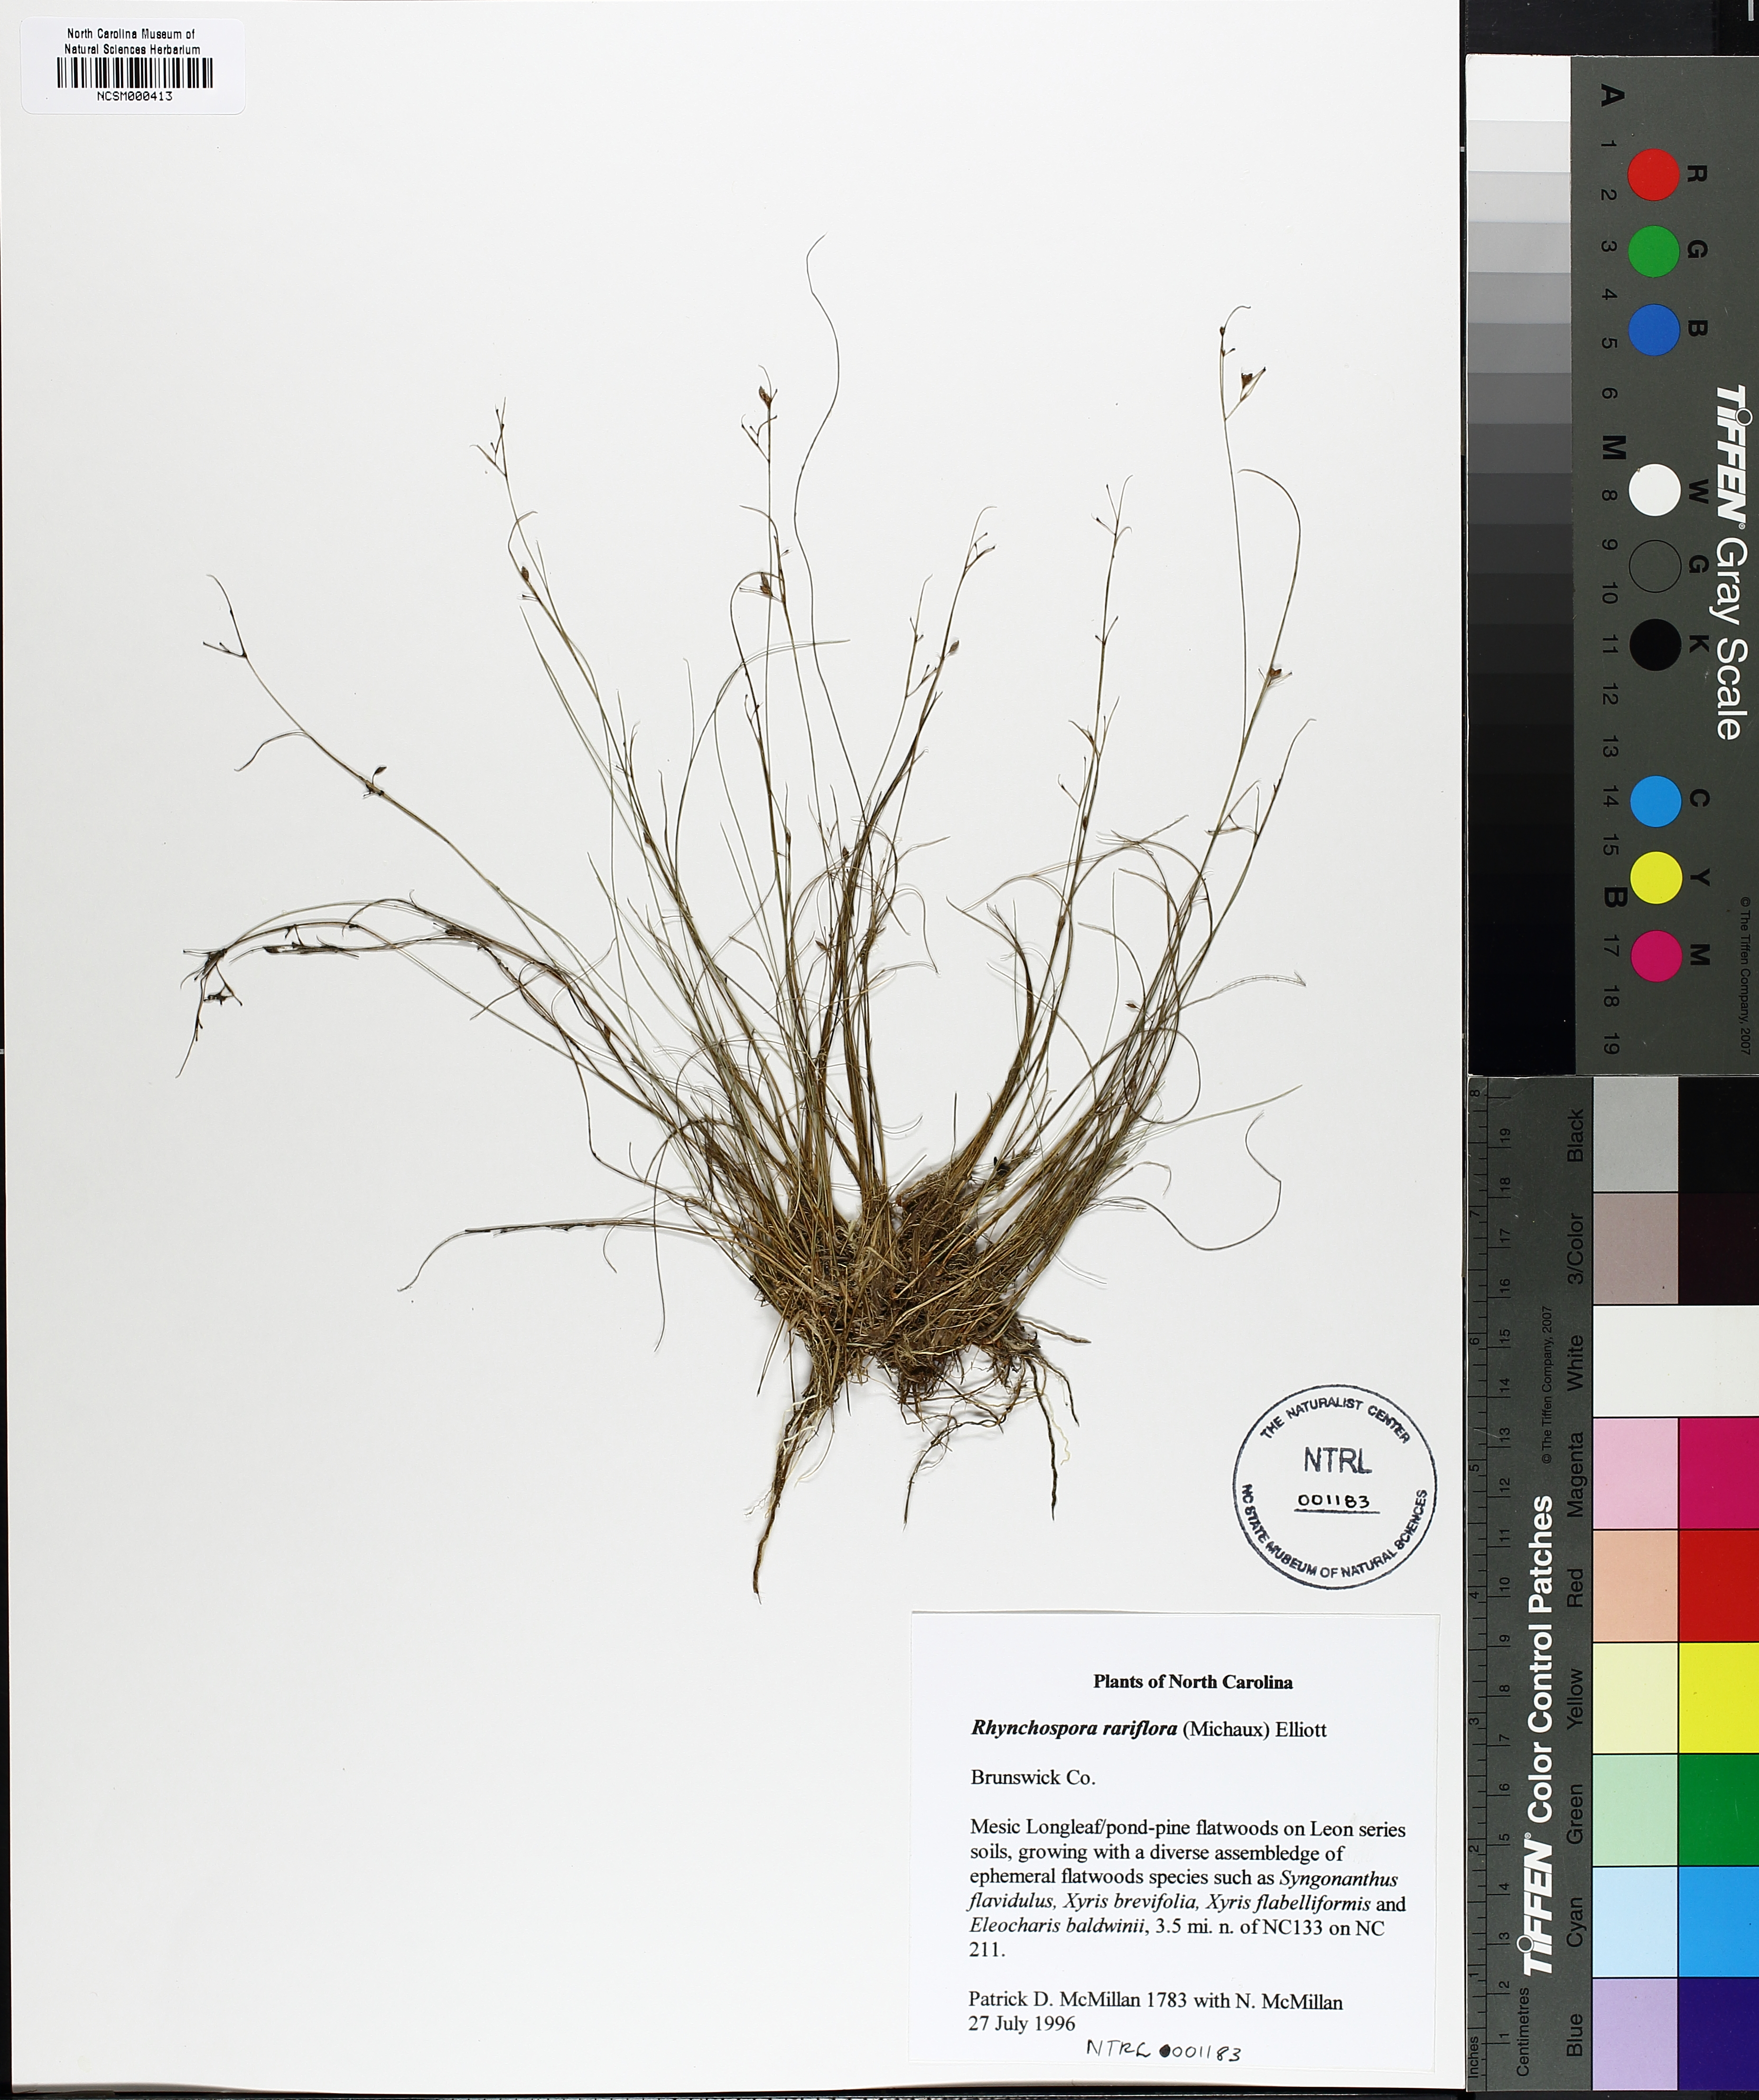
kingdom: Plantae
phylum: Tracheophyta
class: Liliopsida
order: Poales
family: Cyperaceae
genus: Rhynchospora
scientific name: Rhynchospora rariflora
